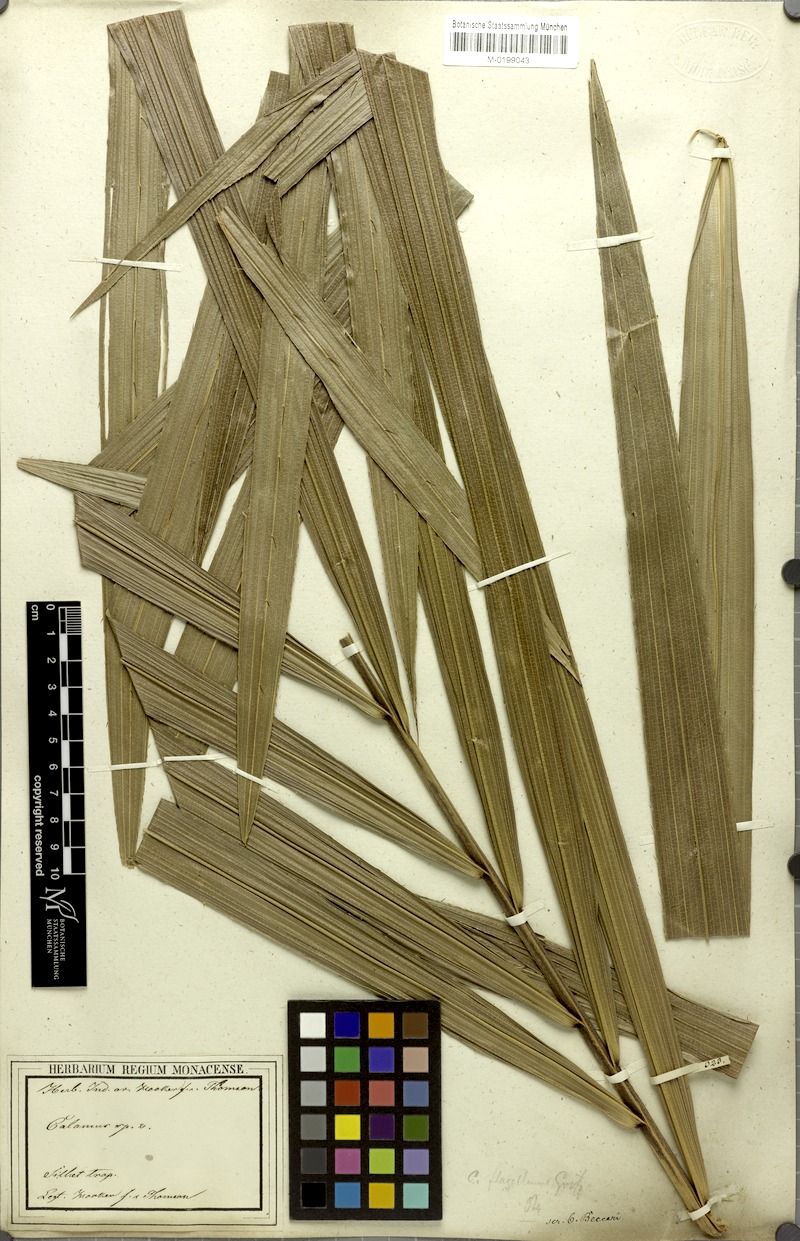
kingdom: Plantae
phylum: Tracheophyta
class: Liliopsida
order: Arecales
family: Arecaceae
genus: Calamus
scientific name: Calamus flagellum
